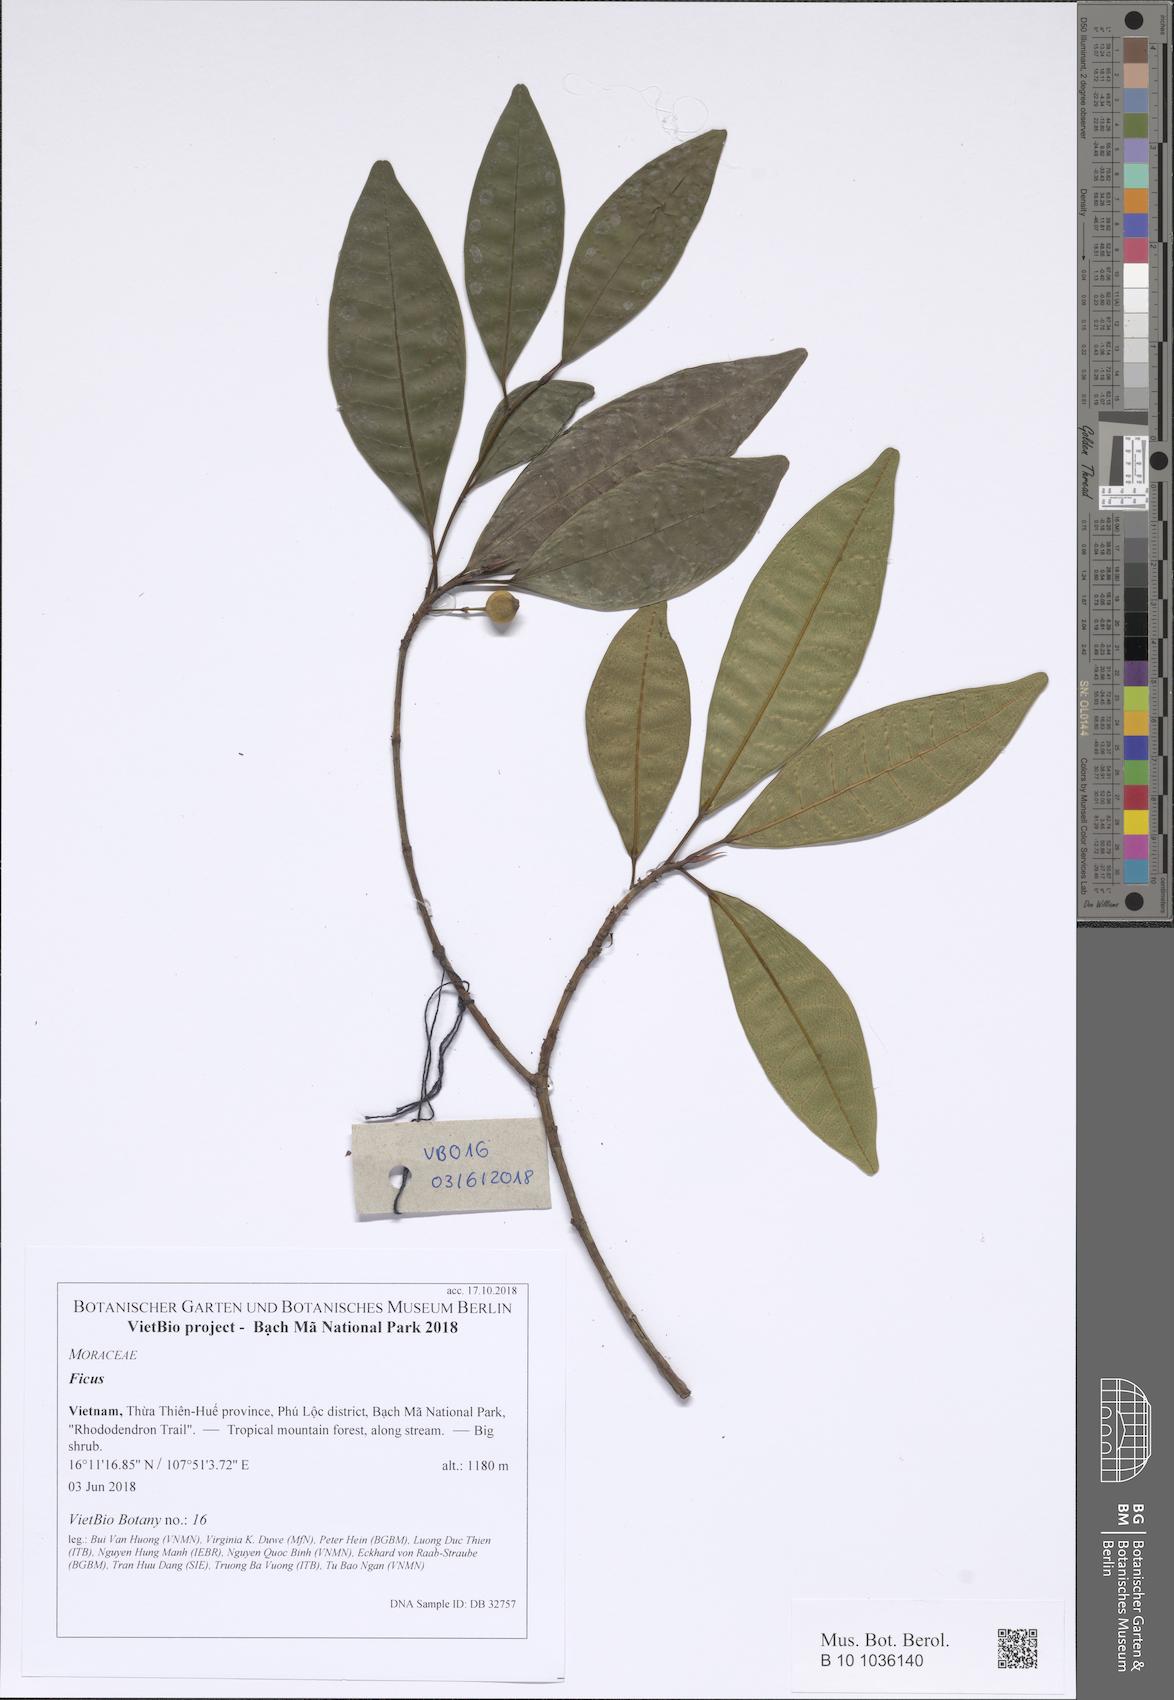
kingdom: Plantae
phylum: Tracheophyta
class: Magnoliopsida
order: Rosales
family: Moraceae
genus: Ficus
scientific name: Ficus
